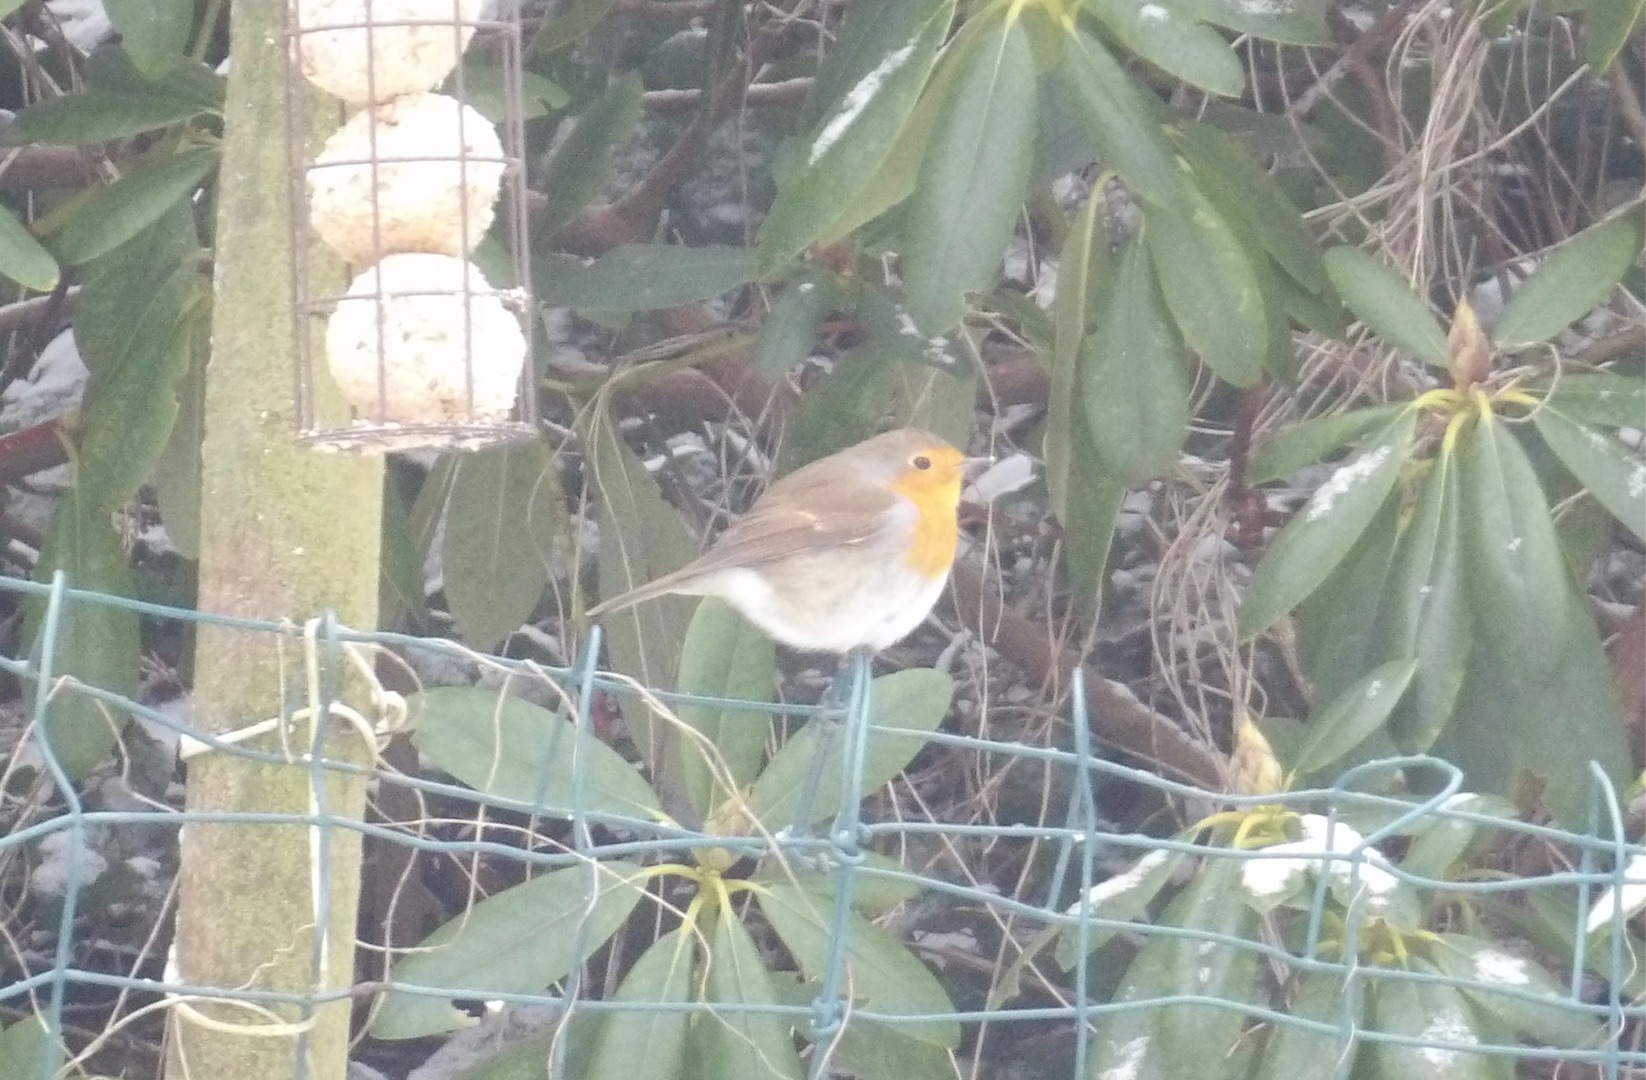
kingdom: Animalia
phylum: Chordata
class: Aves
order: Passeriformes
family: Muscicapidae
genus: Erithacus
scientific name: Erithacus rubecula
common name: Rødhals/rødkælk
